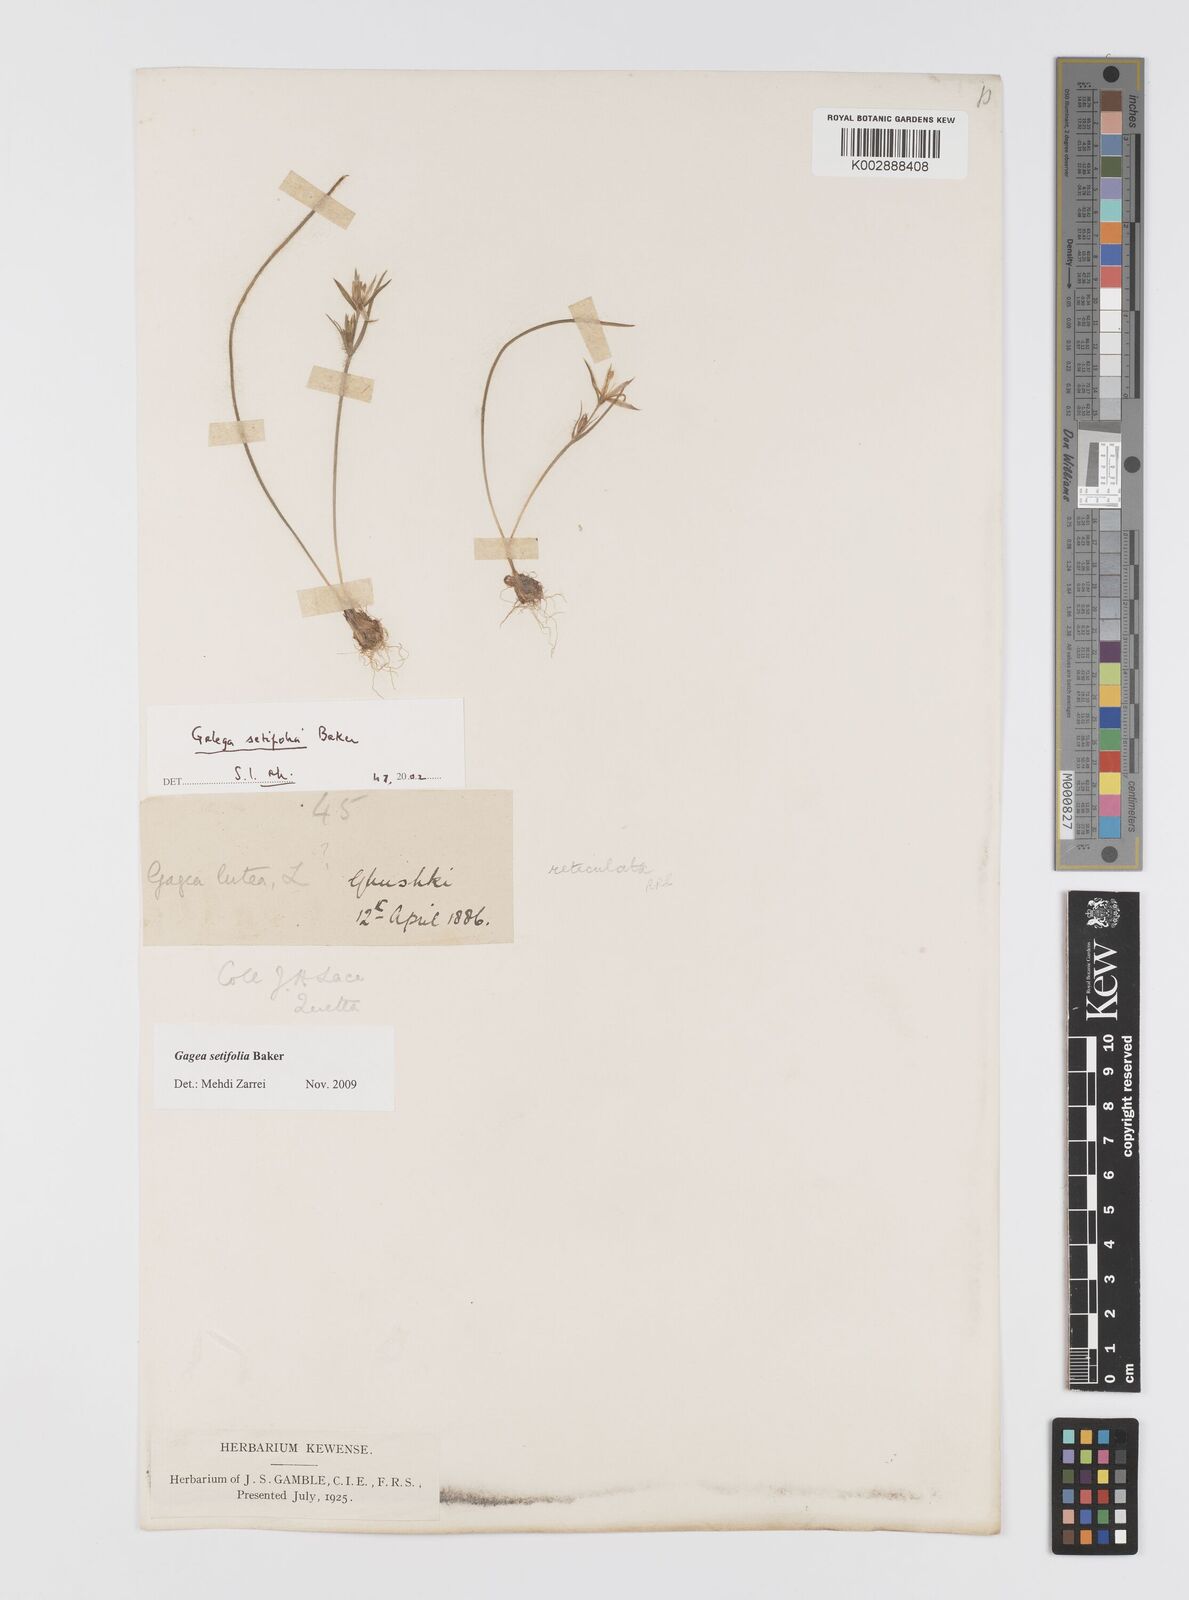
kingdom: Plantae
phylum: Tracheophyta
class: Liliopsida
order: Liliales
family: Liliaceae
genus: Gagea
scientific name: Gagea reticulata
